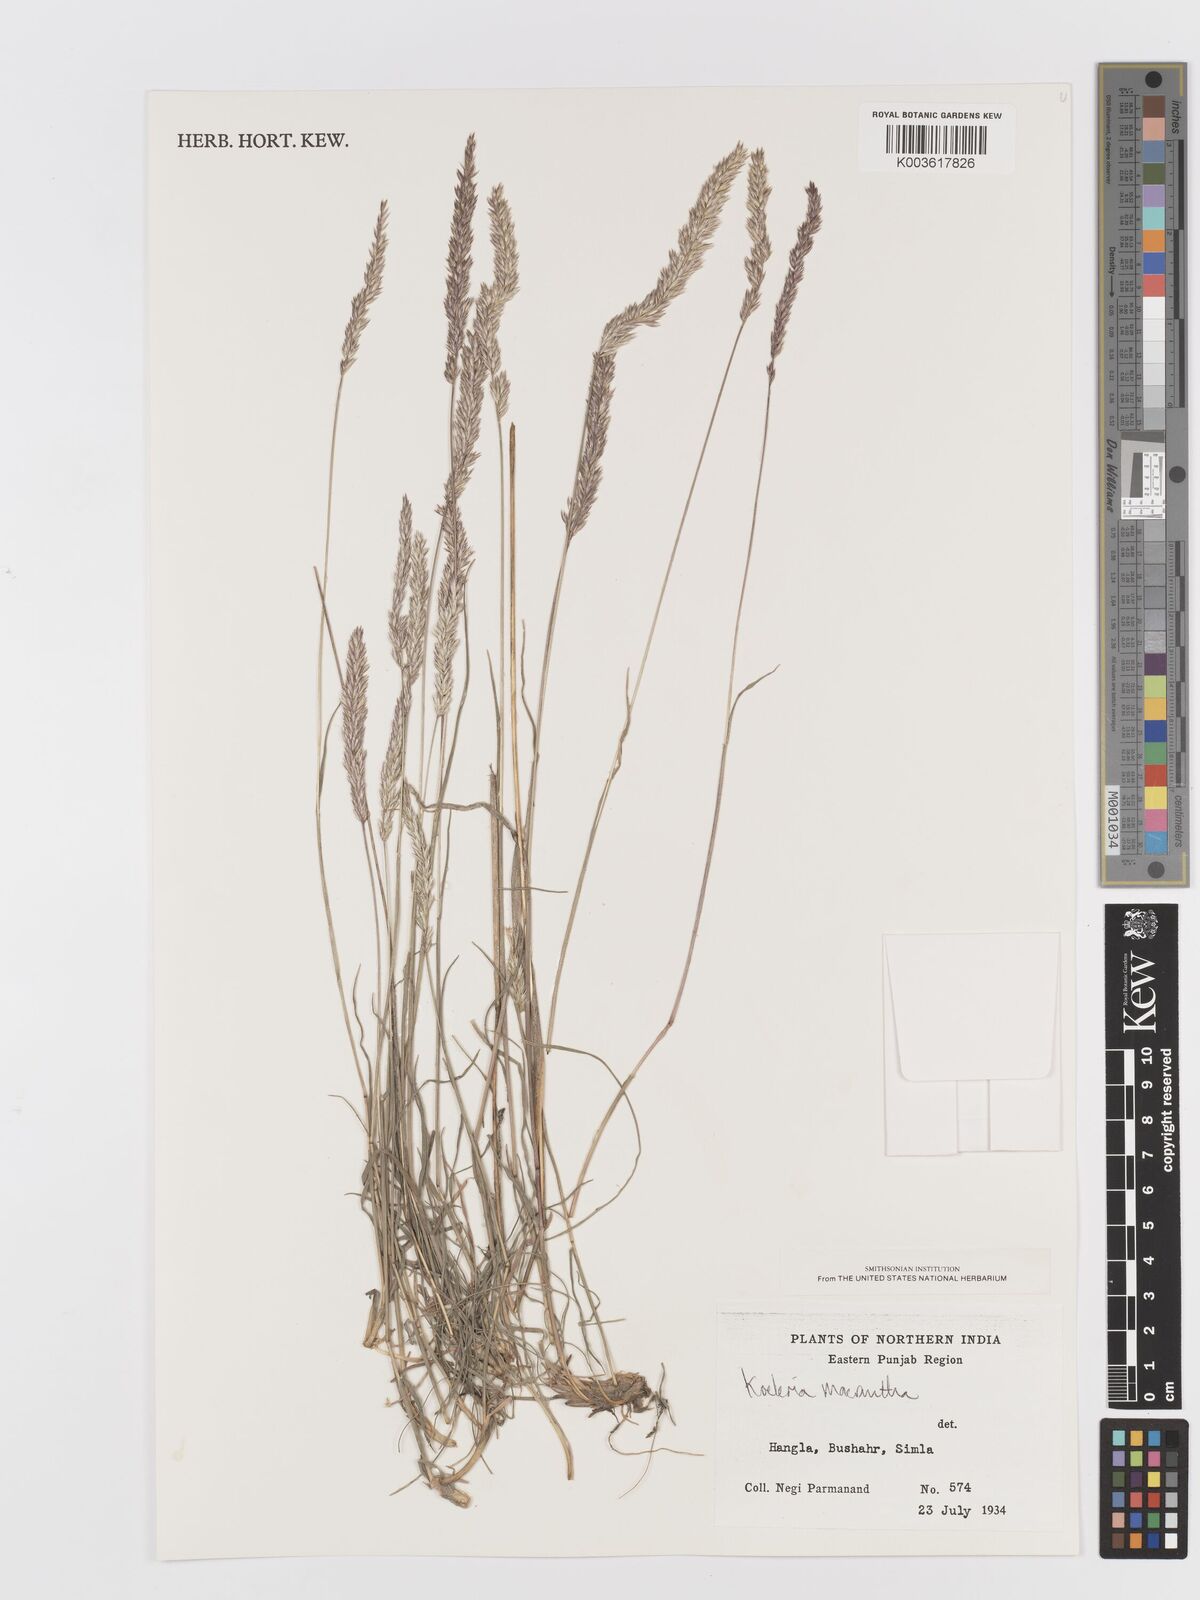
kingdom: Plantae
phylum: Tracheophyta
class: Liliopsida
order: Poales
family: Poaceae
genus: Koeleria
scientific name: Koeleria macrantha
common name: Crested hair-grass
